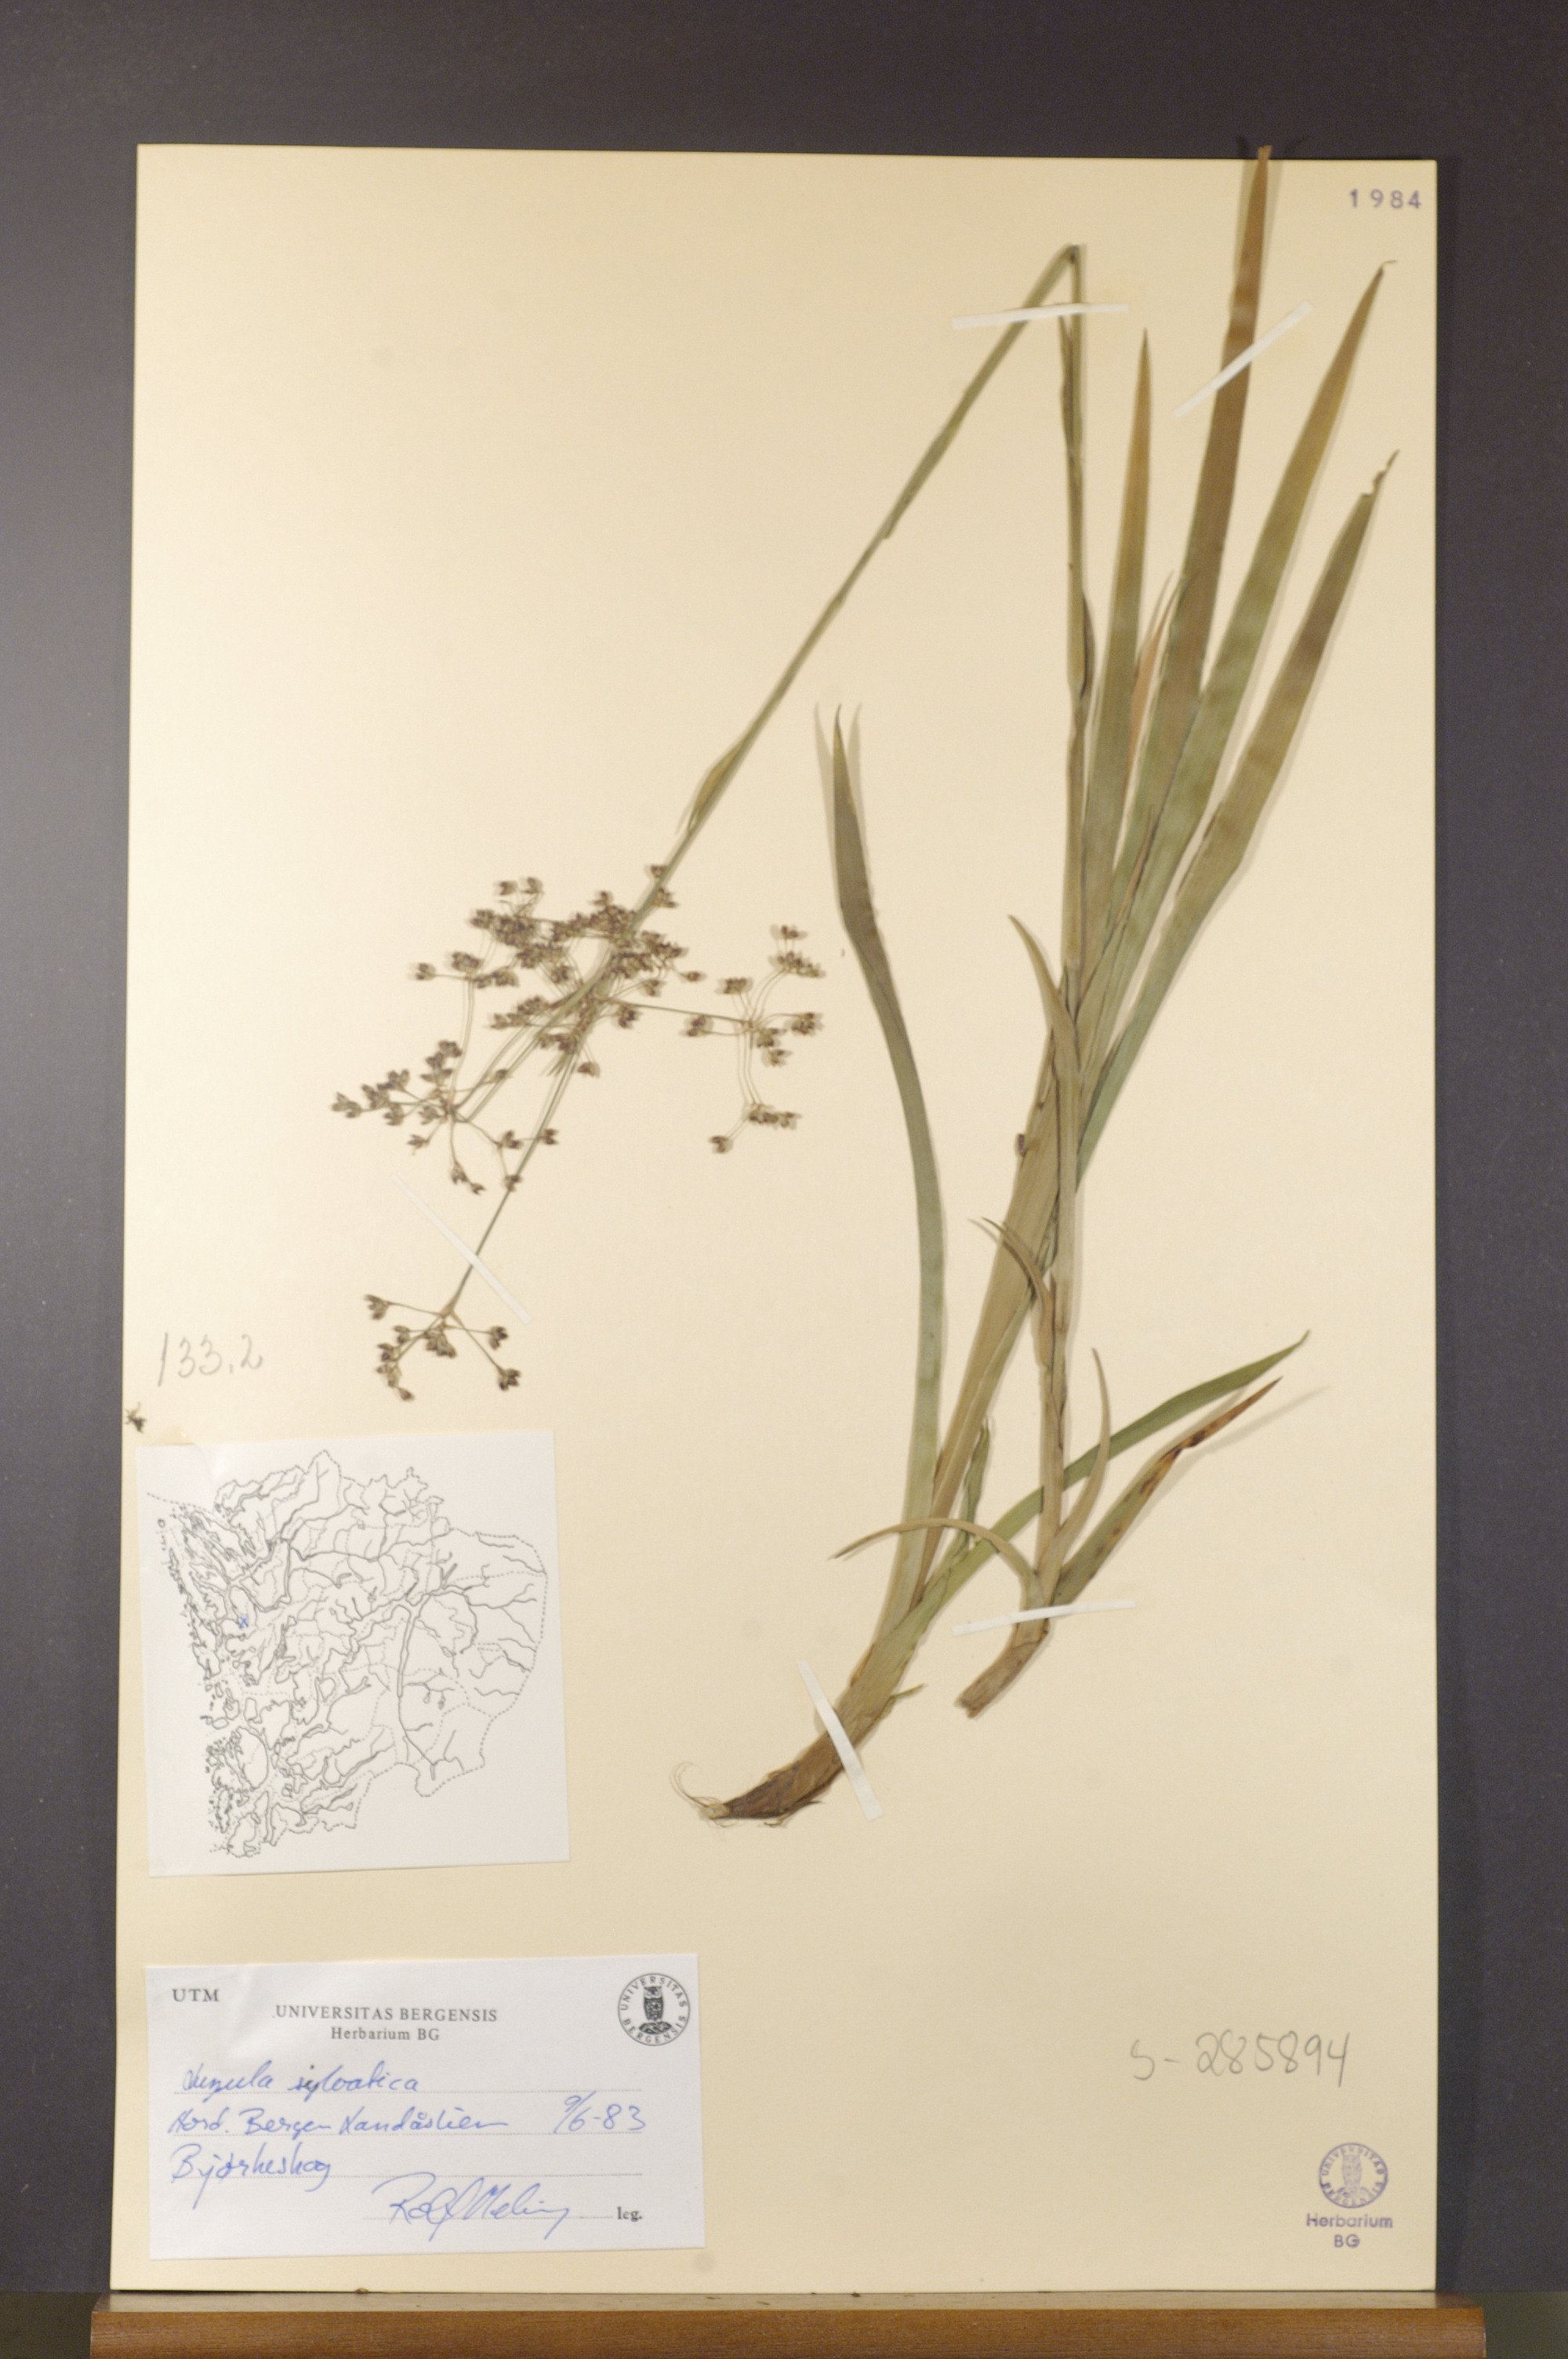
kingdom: Plantae
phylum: Tracheophyta
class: Liliopsida
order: Poales
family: Juncaceae
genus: Luzula
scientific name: Luzula sylvatica
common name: Great wood-rush
